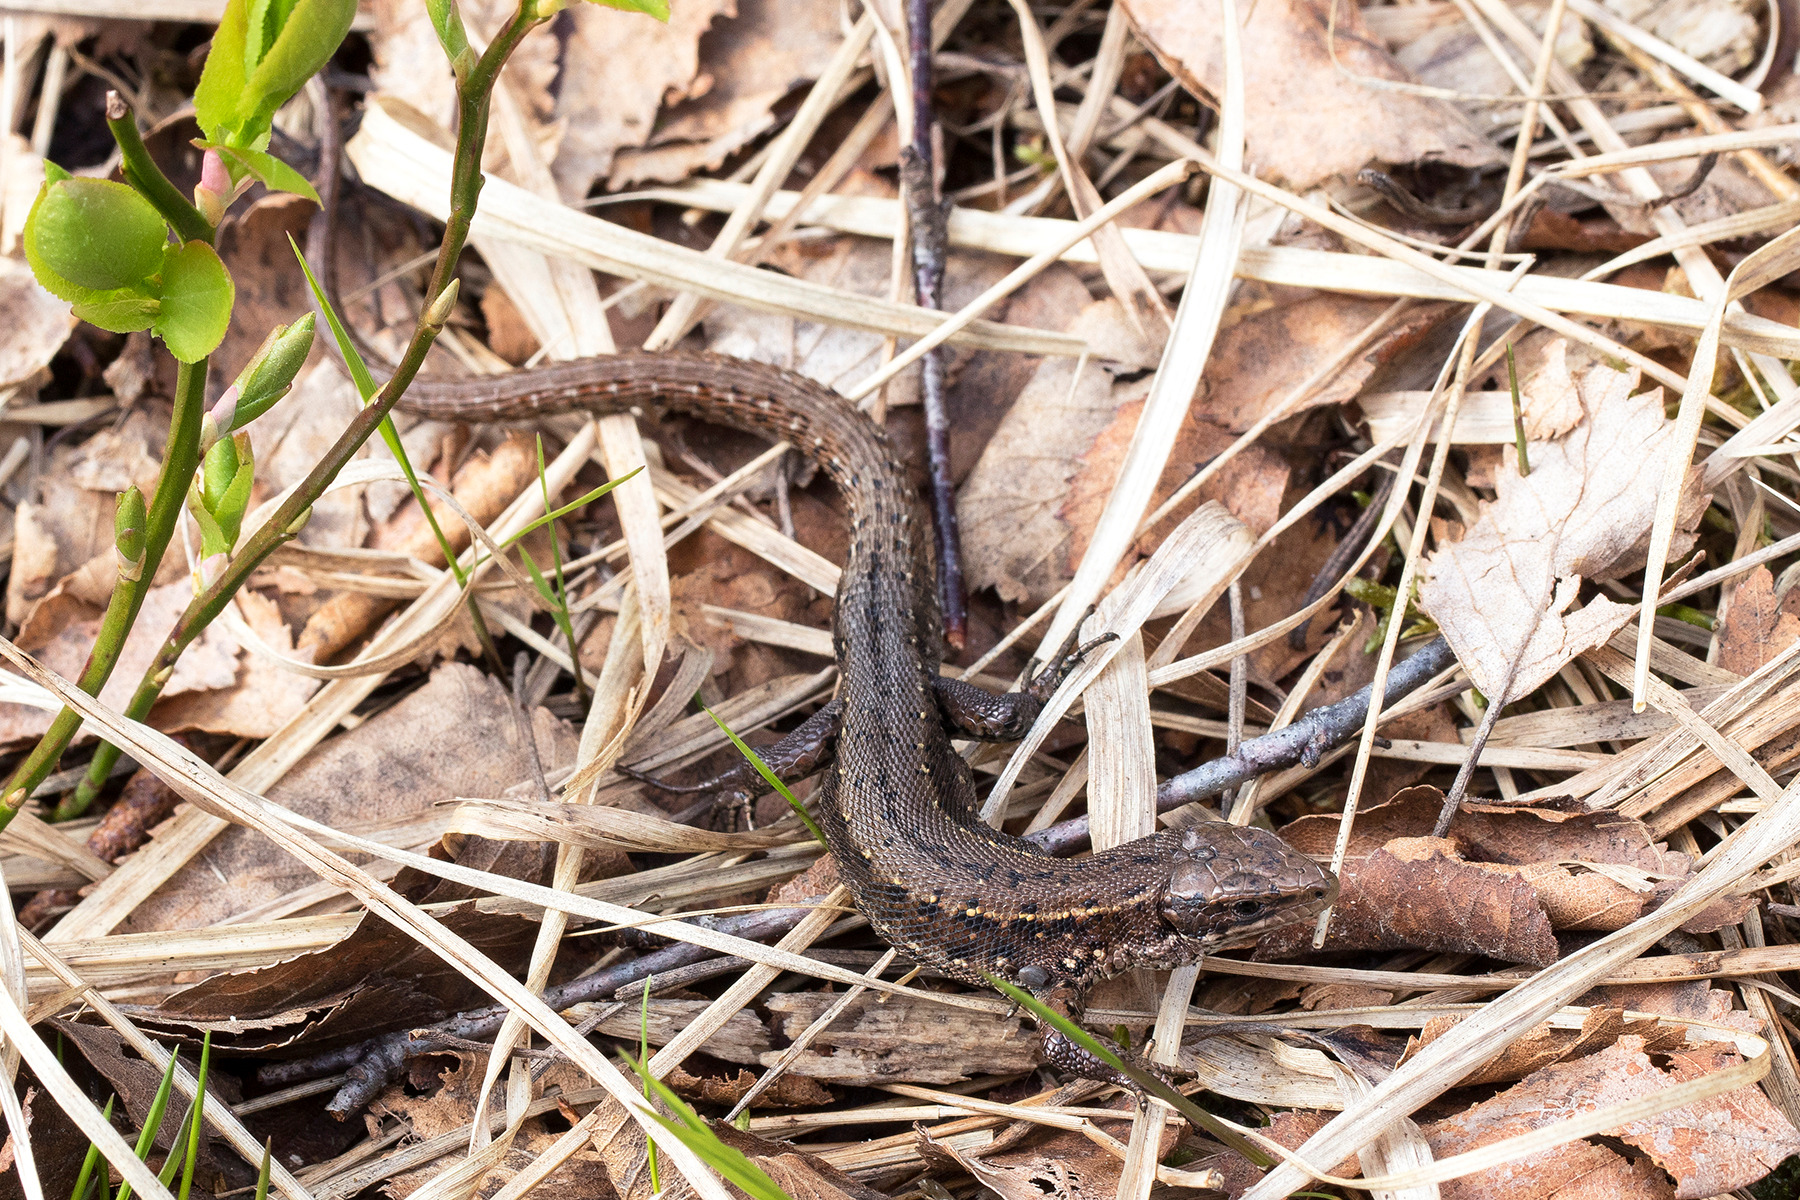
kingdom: Animalia
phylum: Chordata
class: Squamata
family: Lacertidae
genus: Zootoca
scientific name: Zootoca vivipara
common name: Skovfirben
